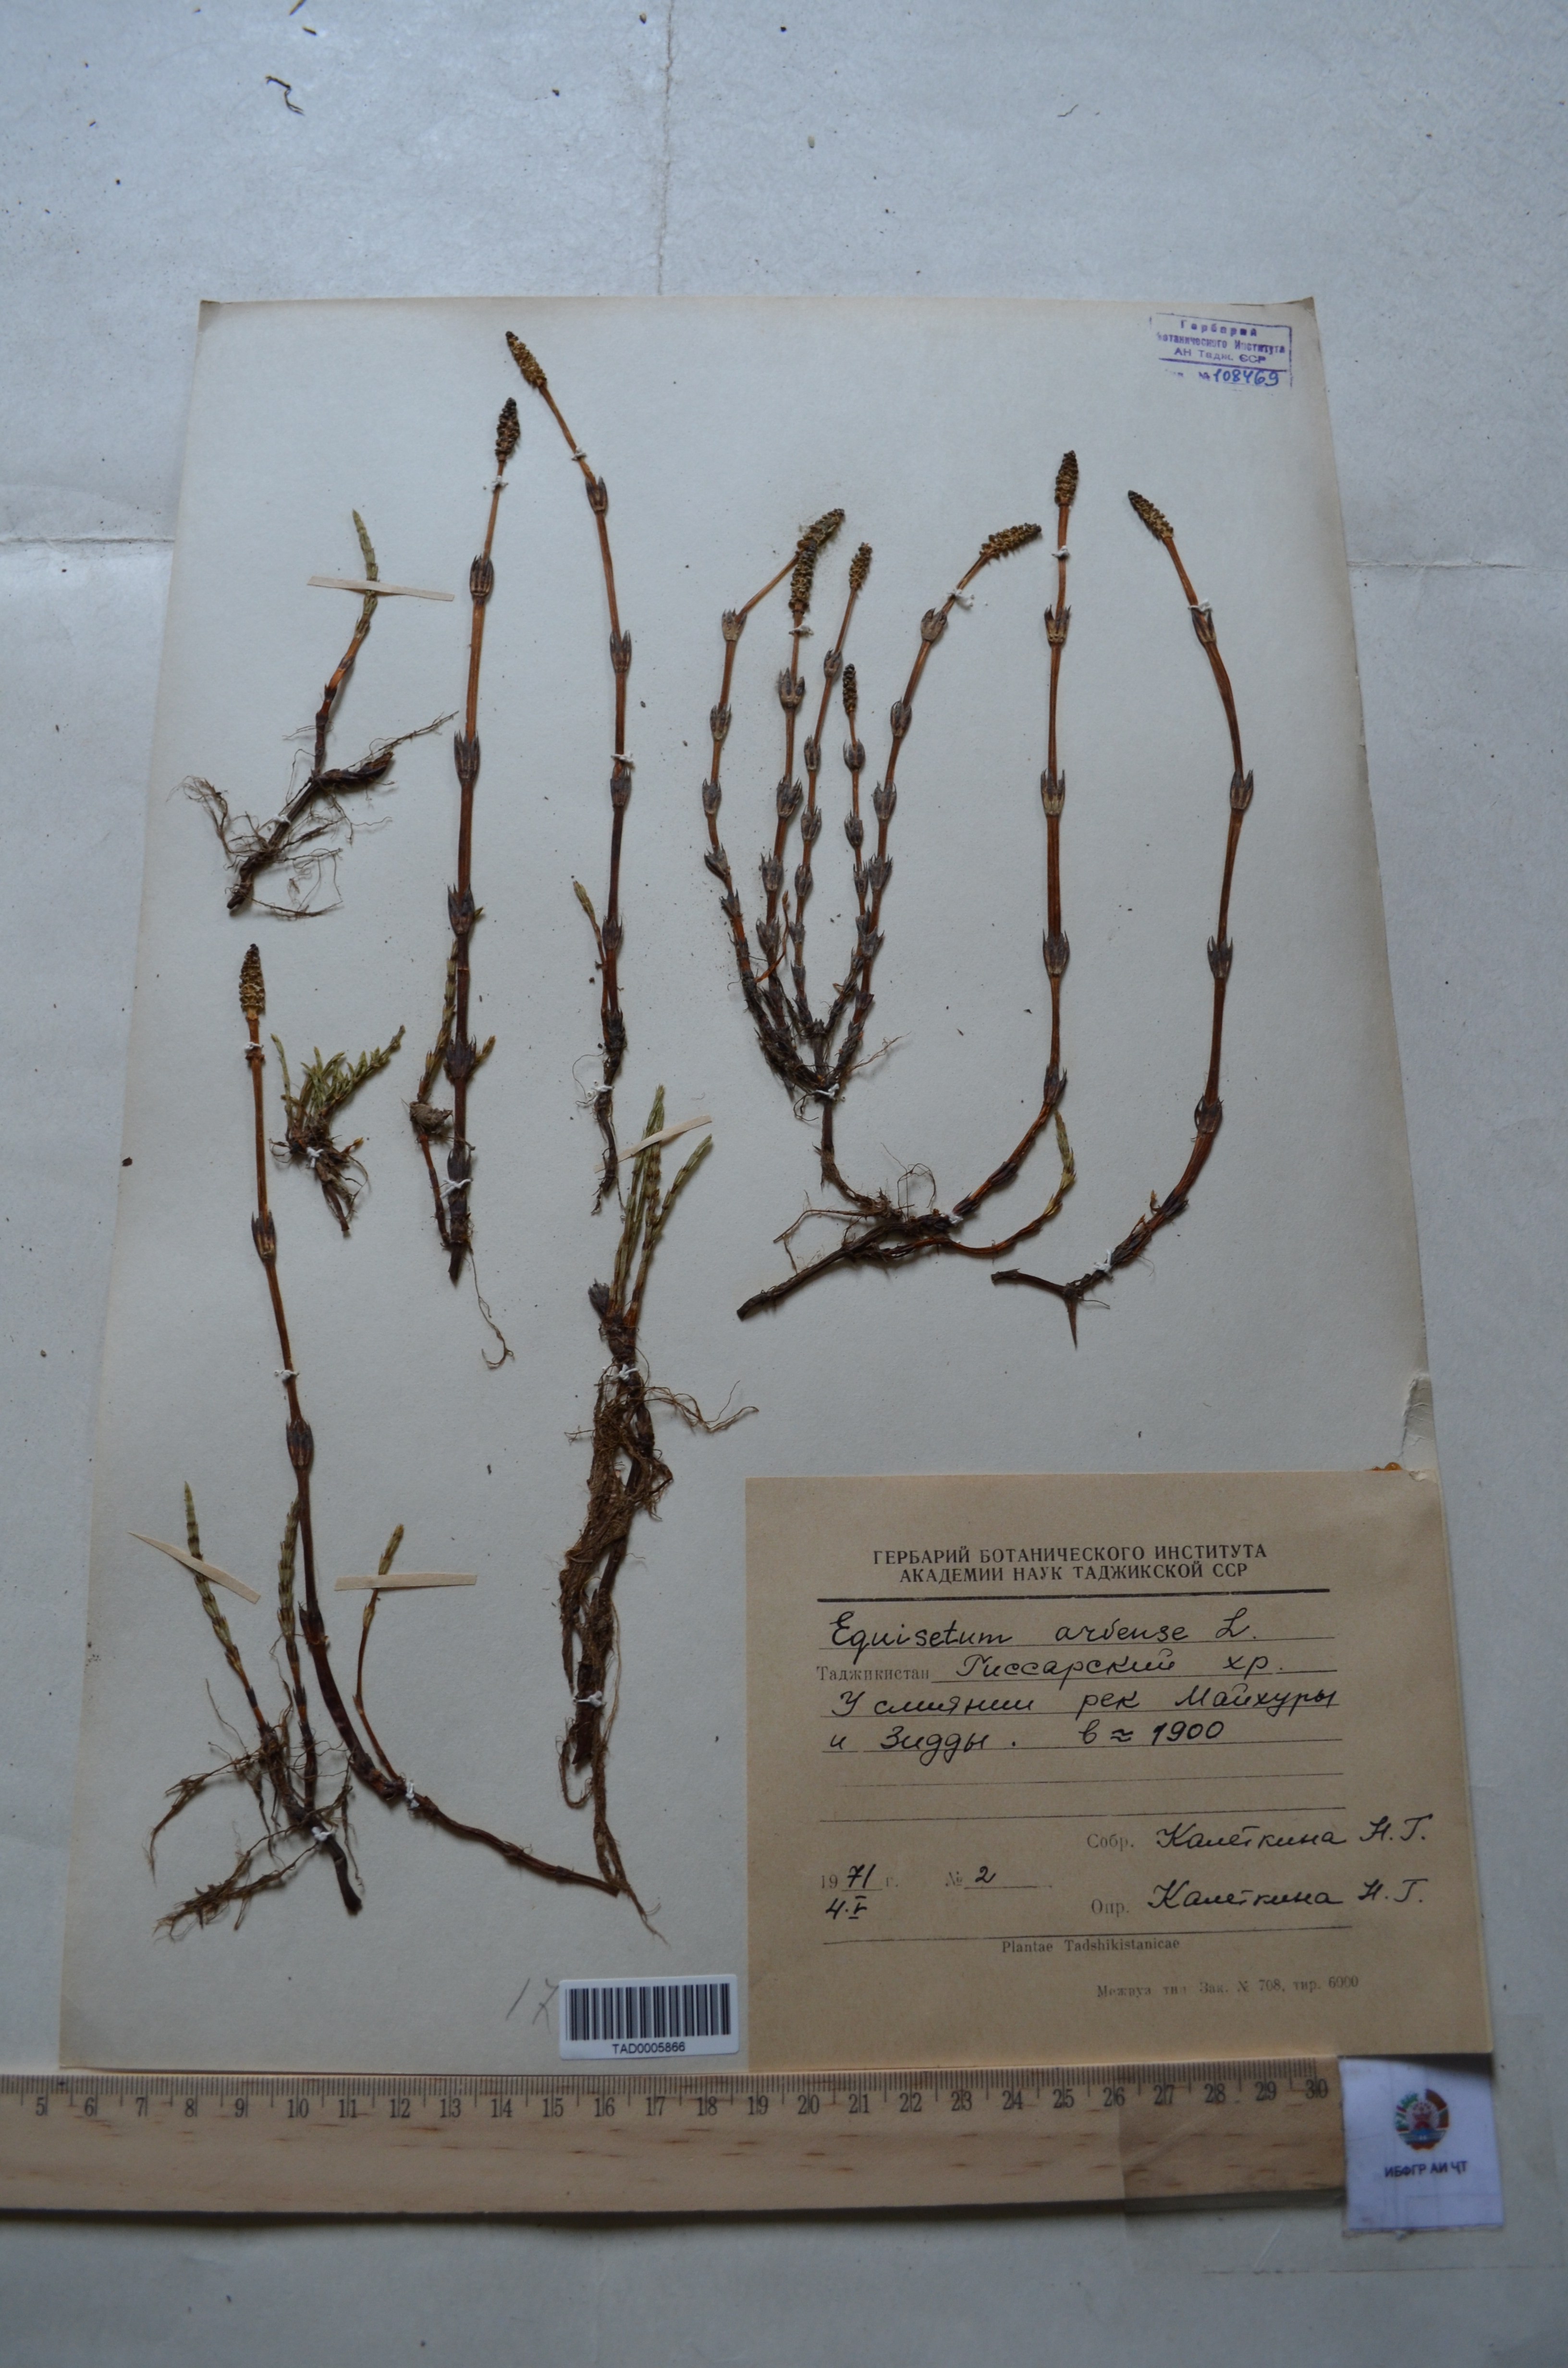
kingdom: Plantae
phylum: Tracheophyta
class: Polypodiopsida
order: Equisetales
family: Equisetaceae
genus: Equisetum
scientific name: Equisetum arvense
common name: Field horsetail
